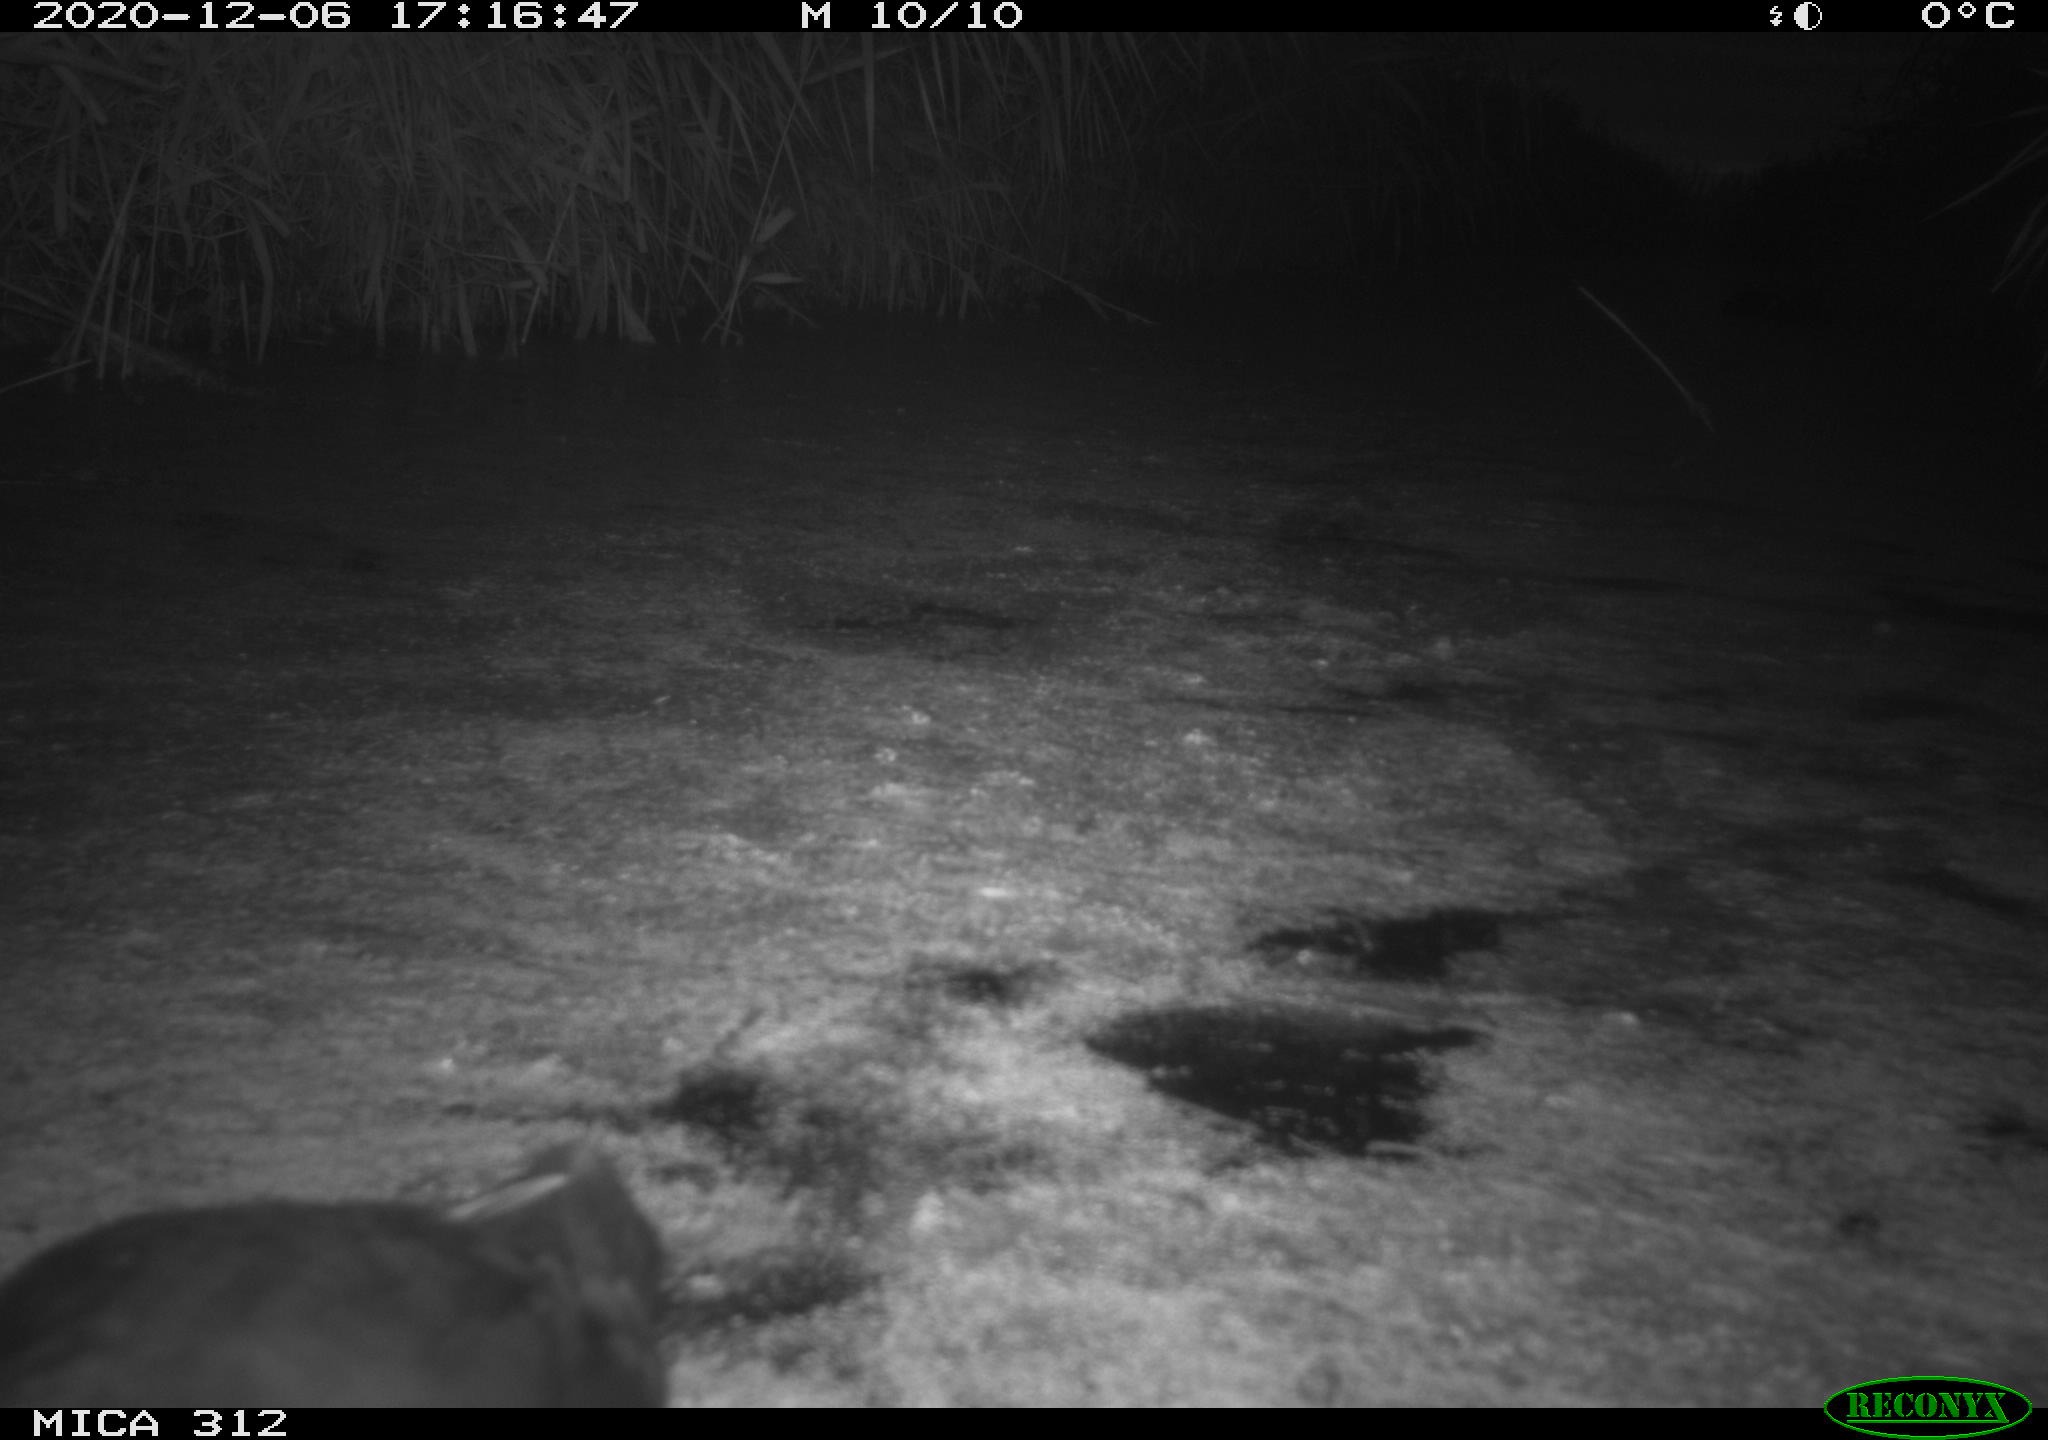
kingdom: Animalia
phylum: Chordata
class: Aves
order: Gruiformes
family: Rallidae
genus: Gallinula
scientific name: Gallinula chloropus
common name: Common moorhen
